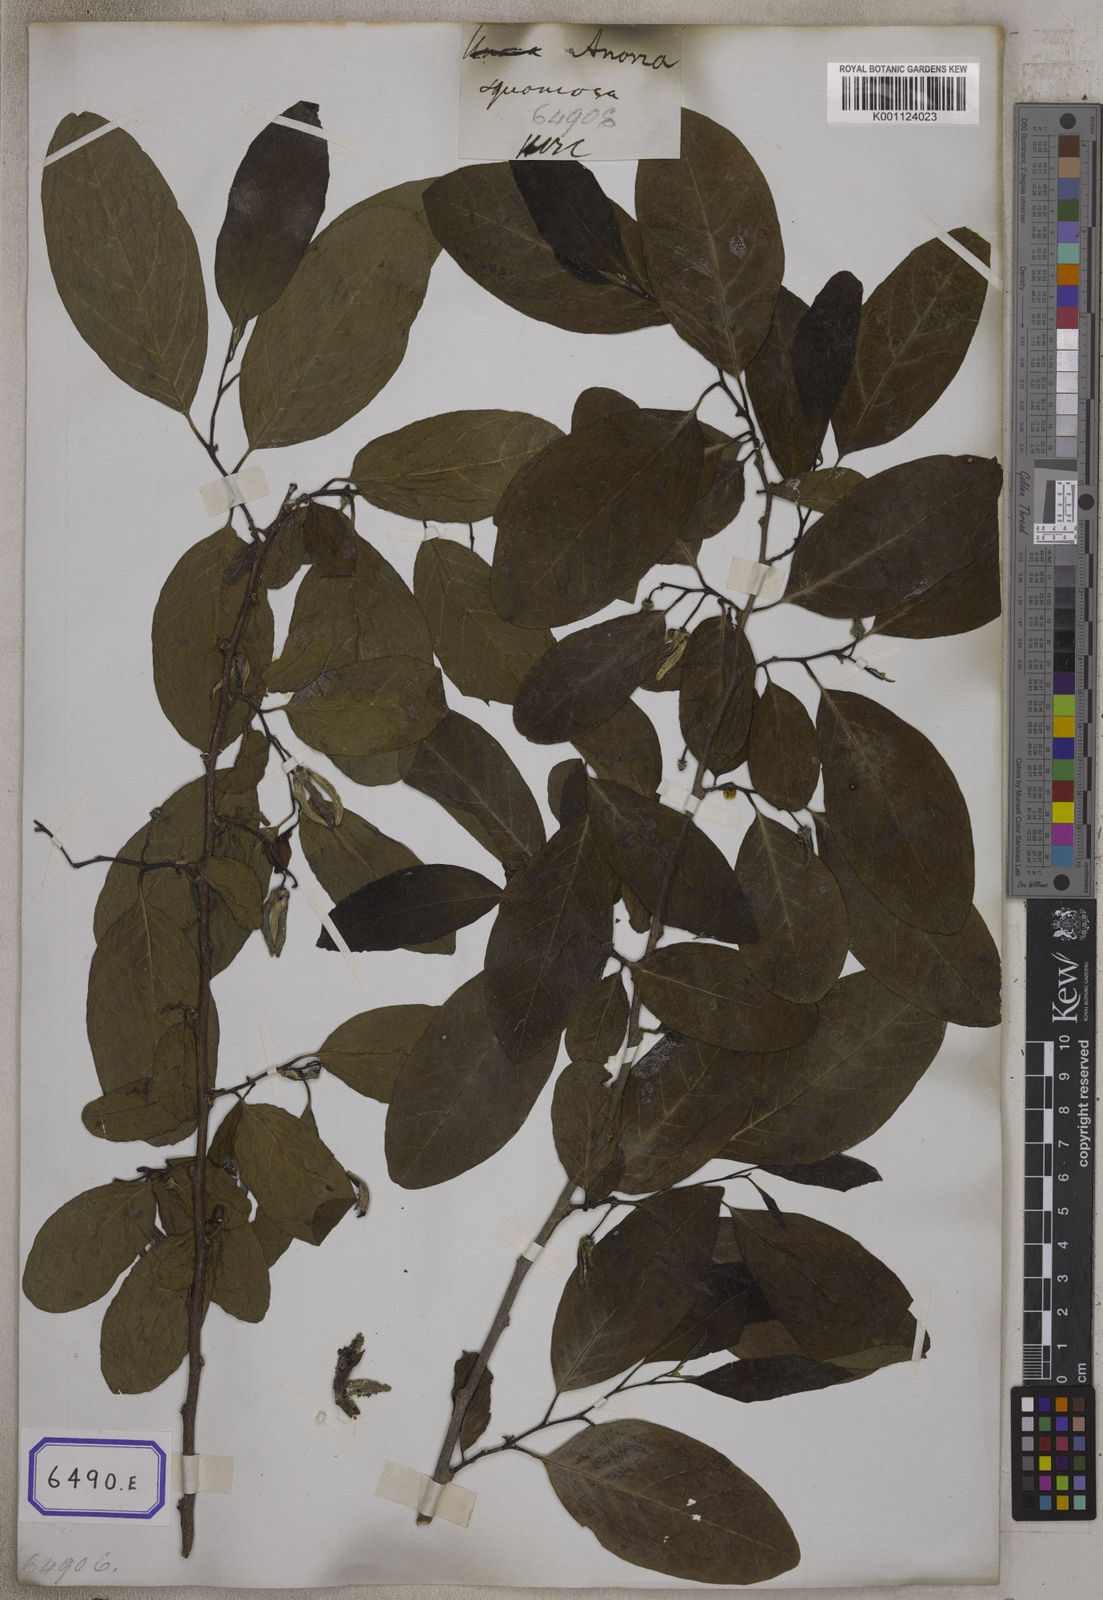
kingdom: Plantae
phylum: Tracheophyta
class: Magnoliopsida
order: Magnoliales
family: Annonaceae
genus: Annona
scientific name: Annona squamosa
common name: Custard-apple
